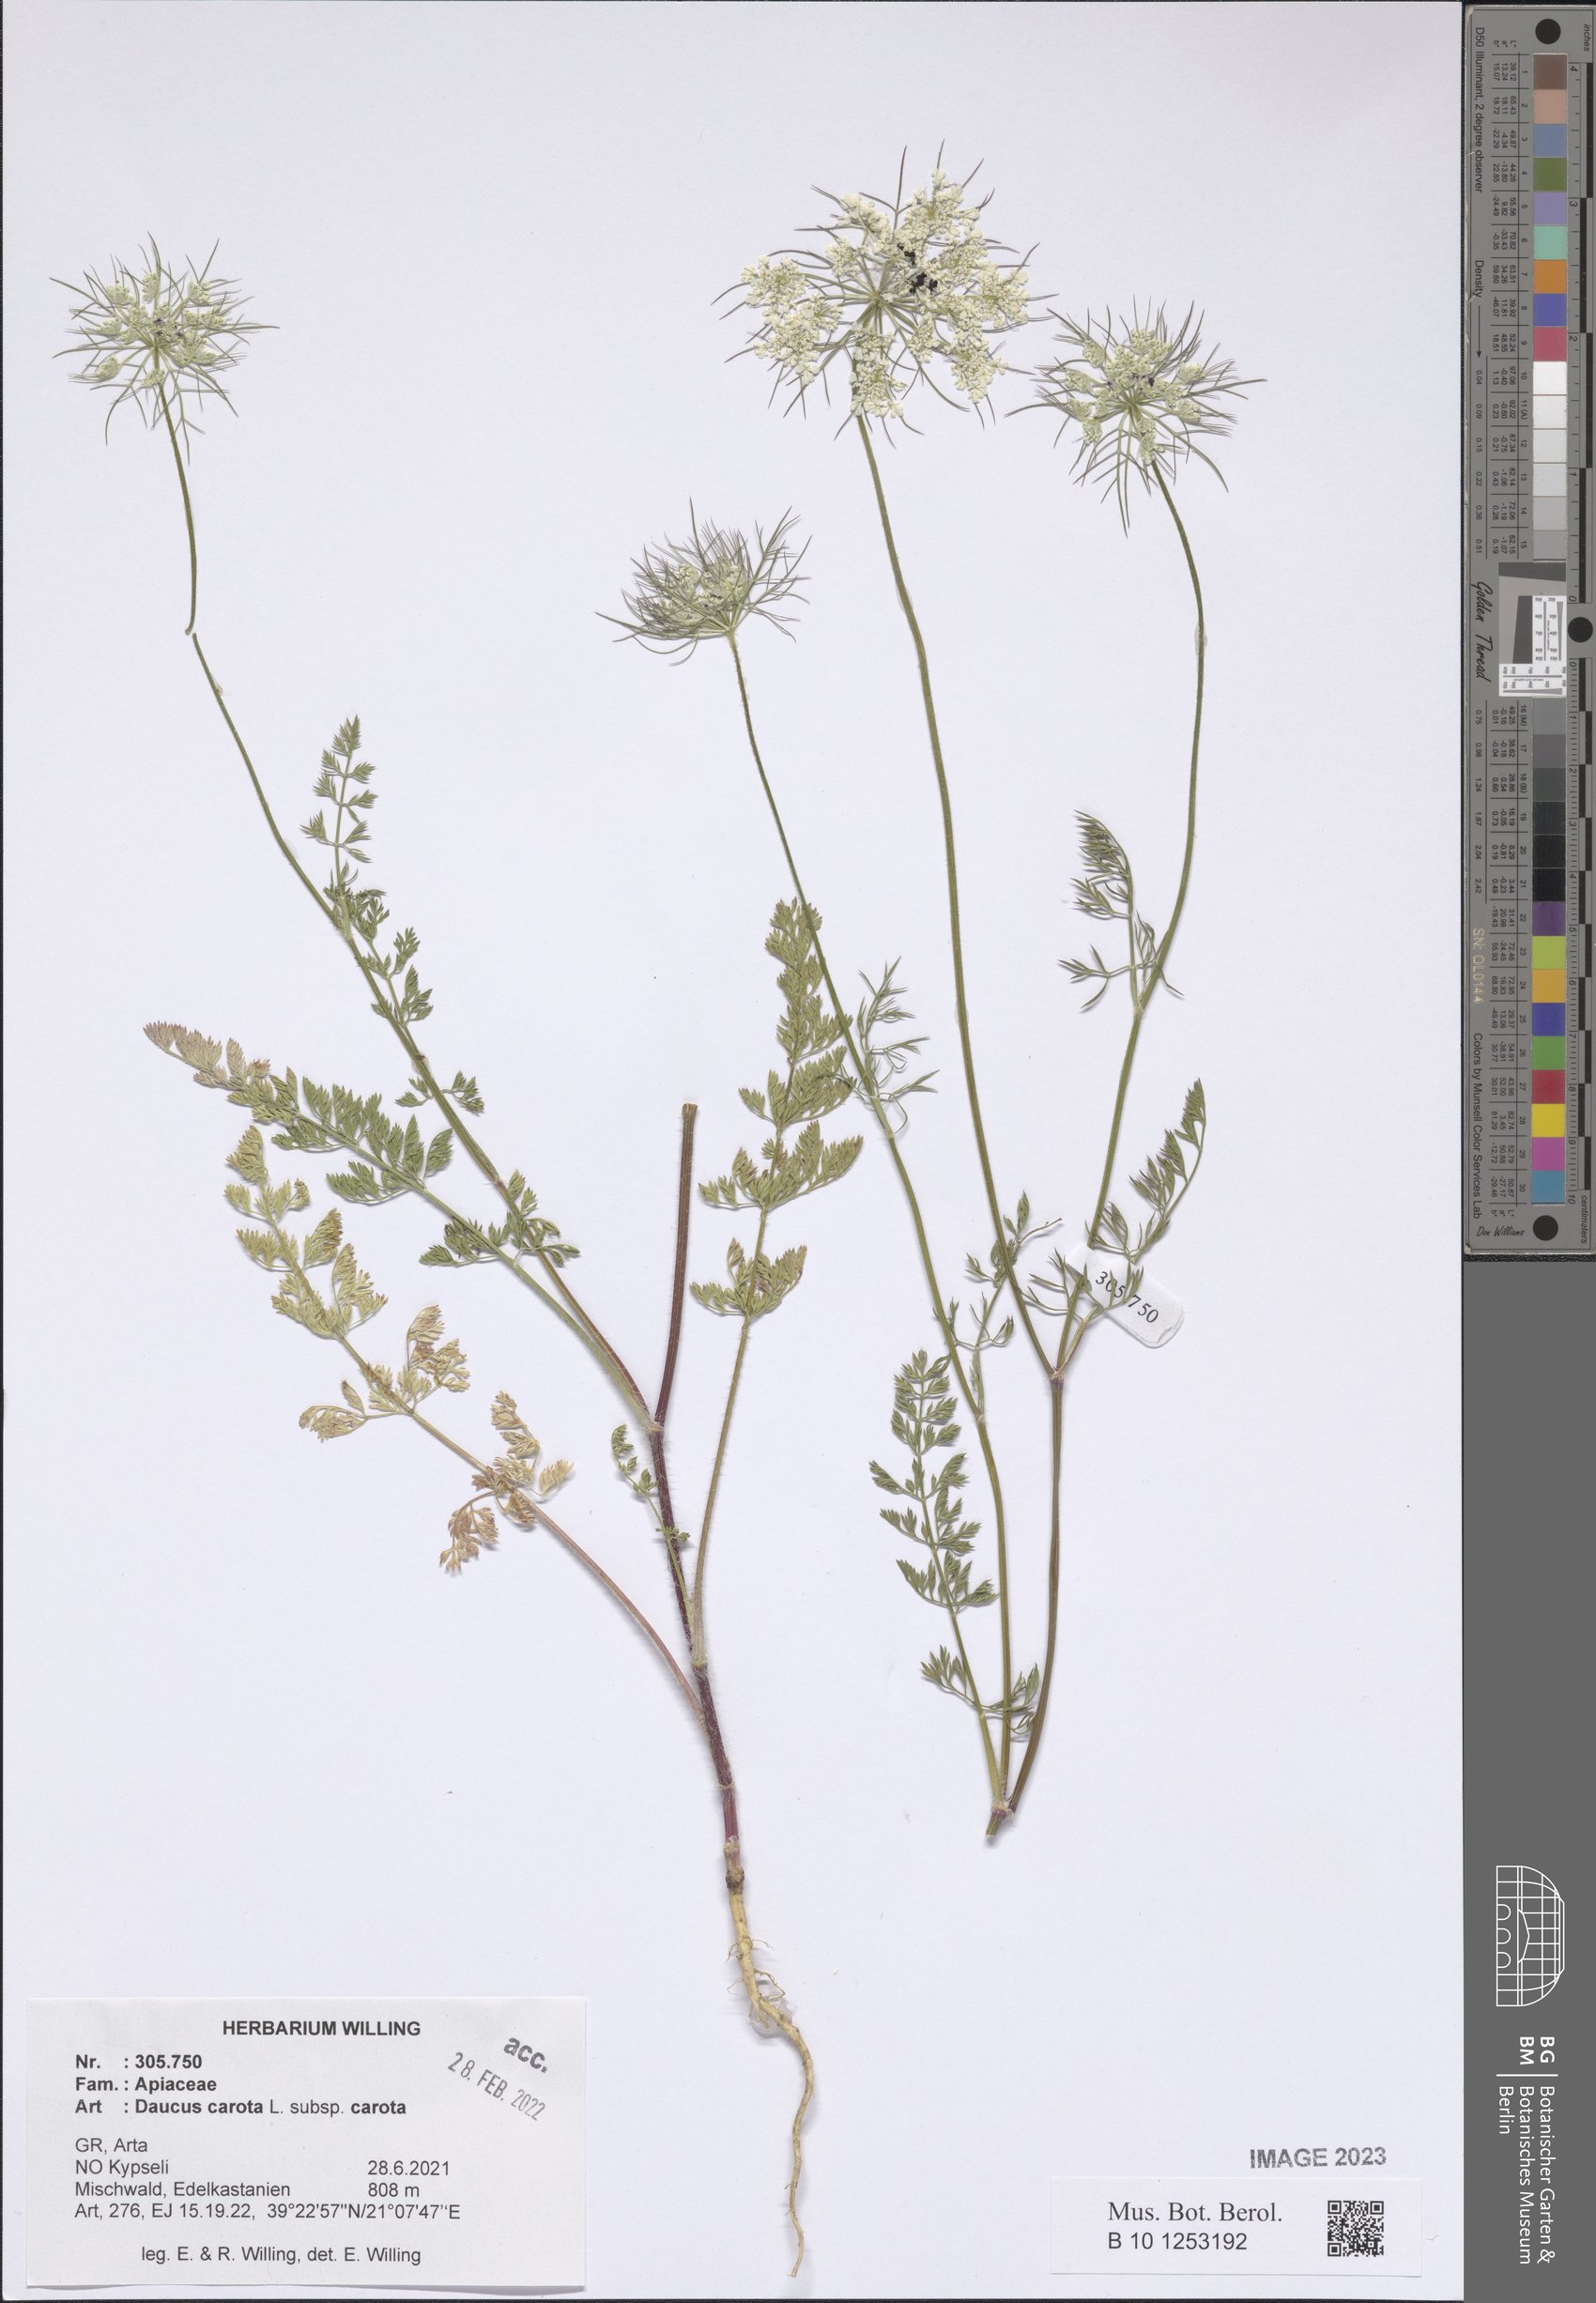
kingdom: Plantae
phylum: Tracheophyta
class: Magnoliopsida
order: Apiales
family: Apiaceae
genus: Daucus
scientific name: Daucus carota
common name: Wild carrot
